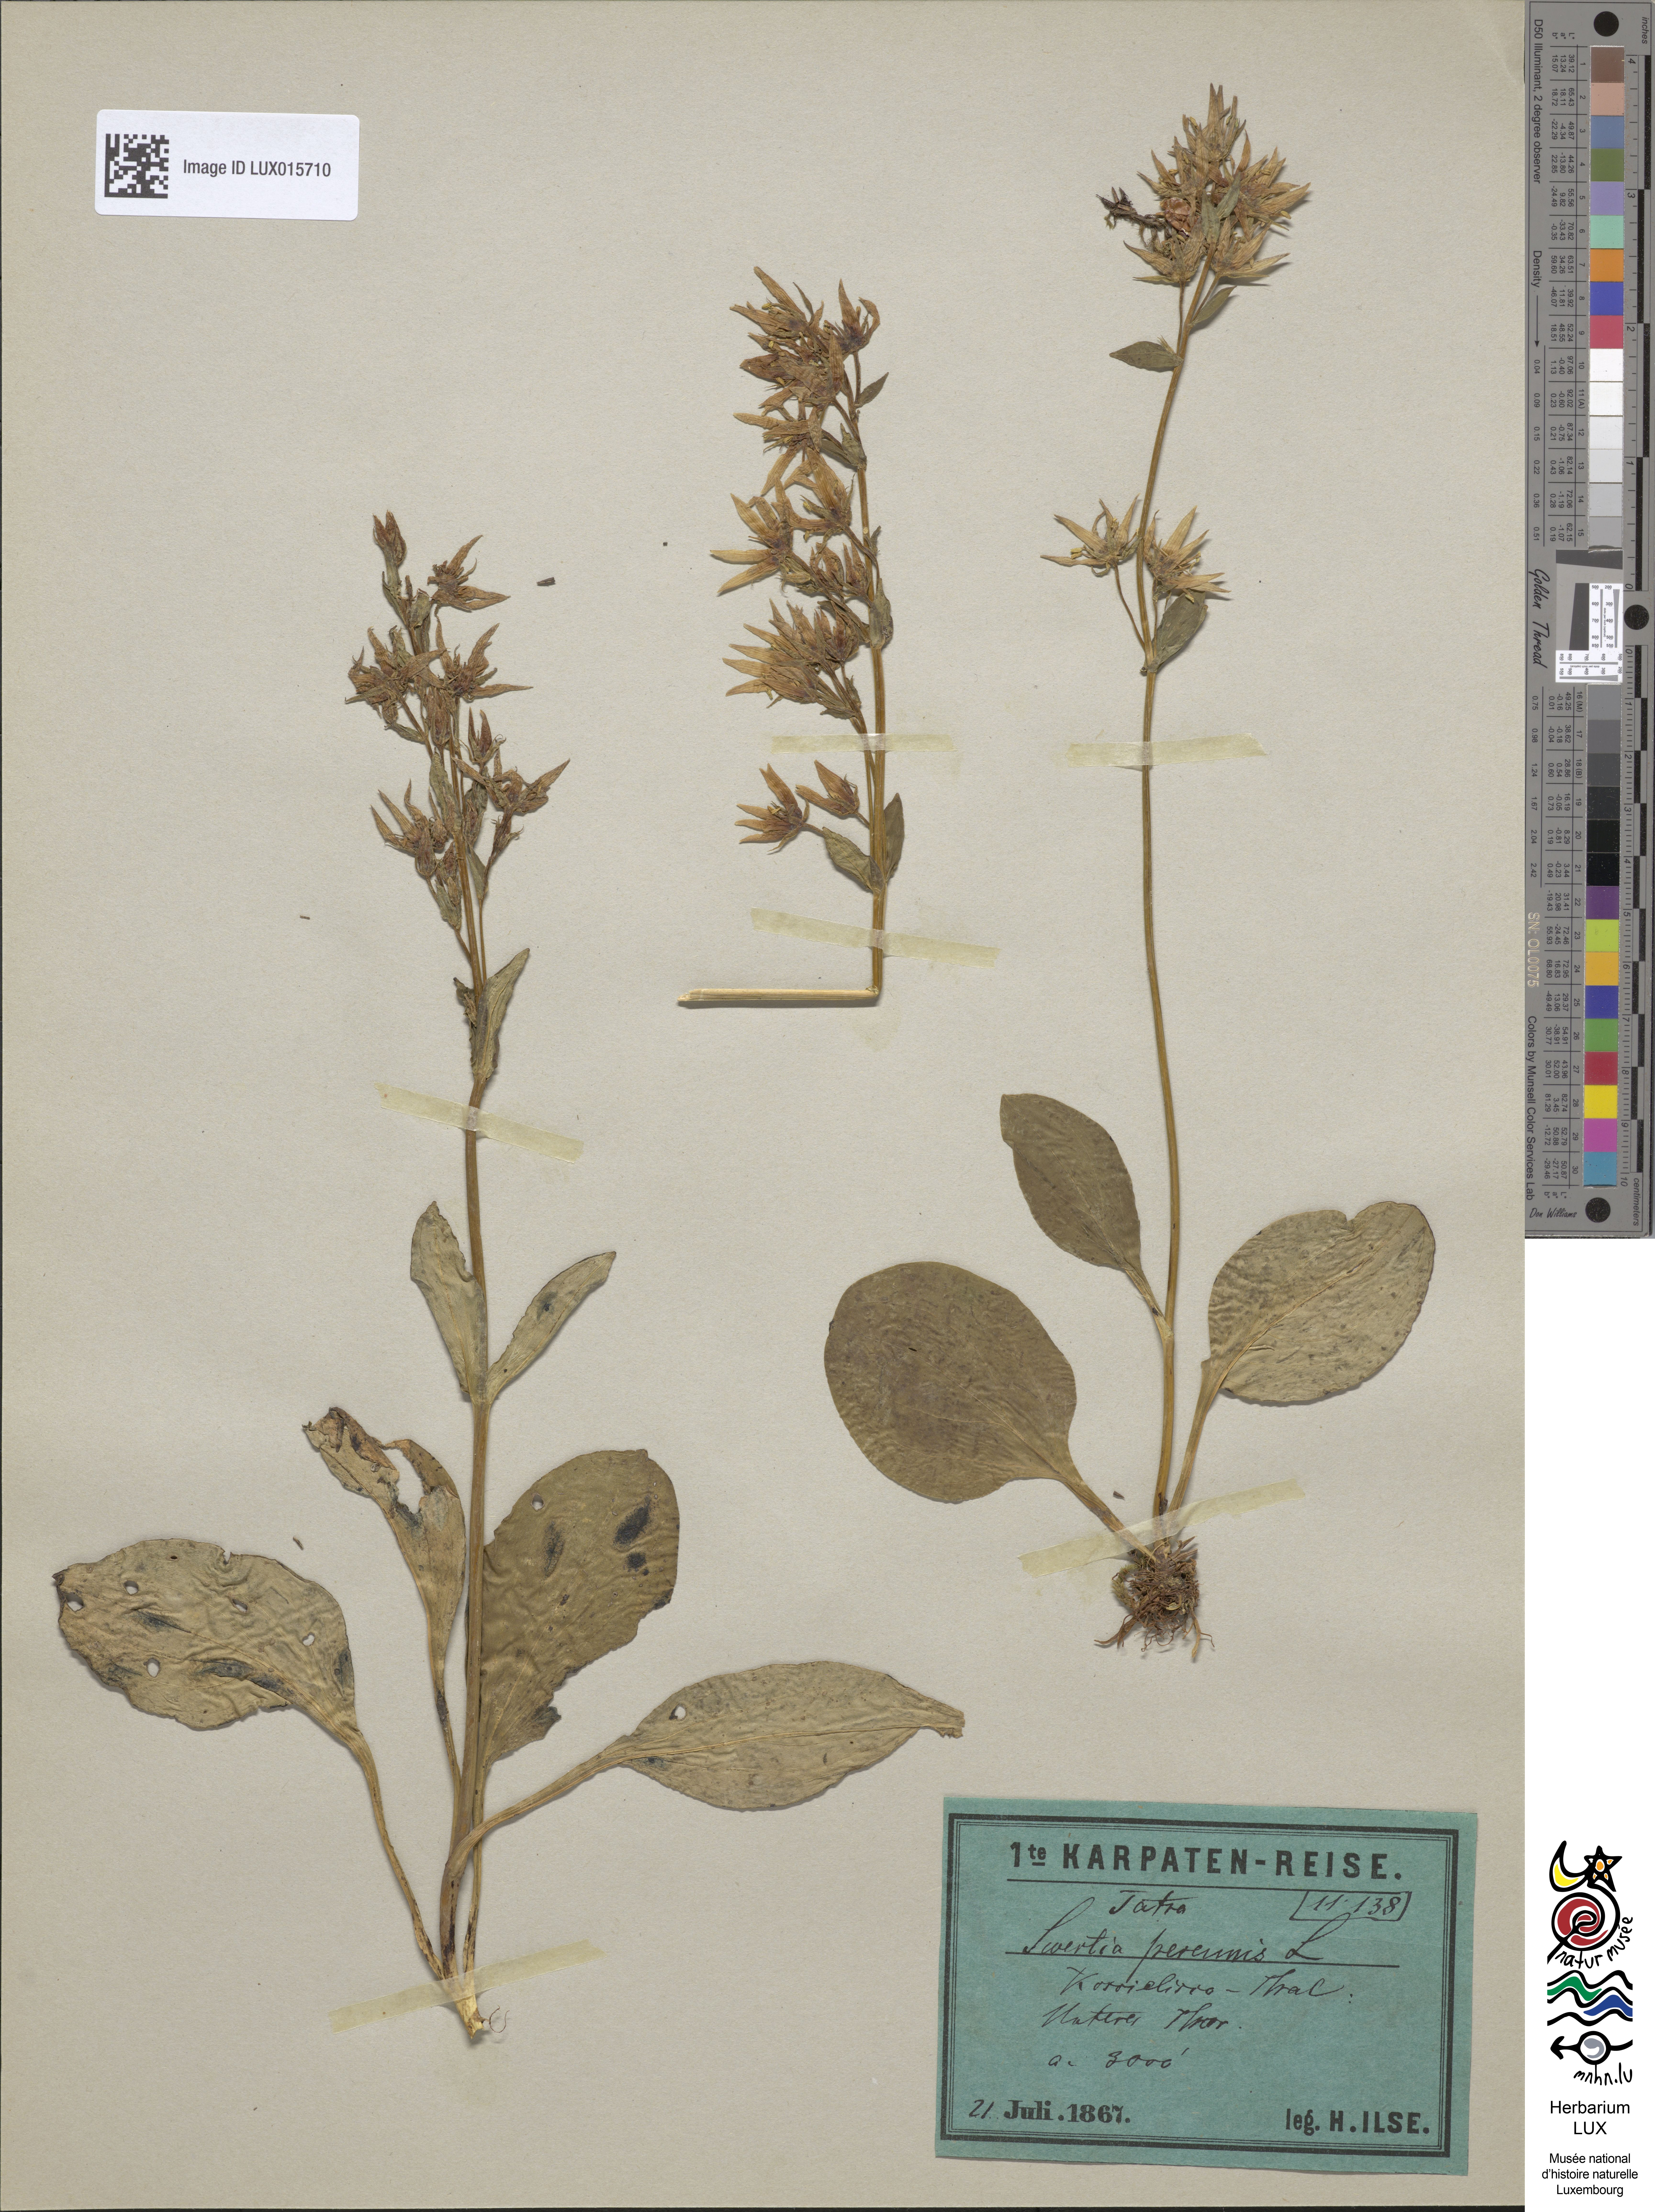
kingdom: Plantae
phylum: Tracheophyta
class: Magnoliopsida
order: Gentianales
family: Gentianaceae
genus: Swertia
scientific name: Swertia perennis
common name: Alpine bog swertia
